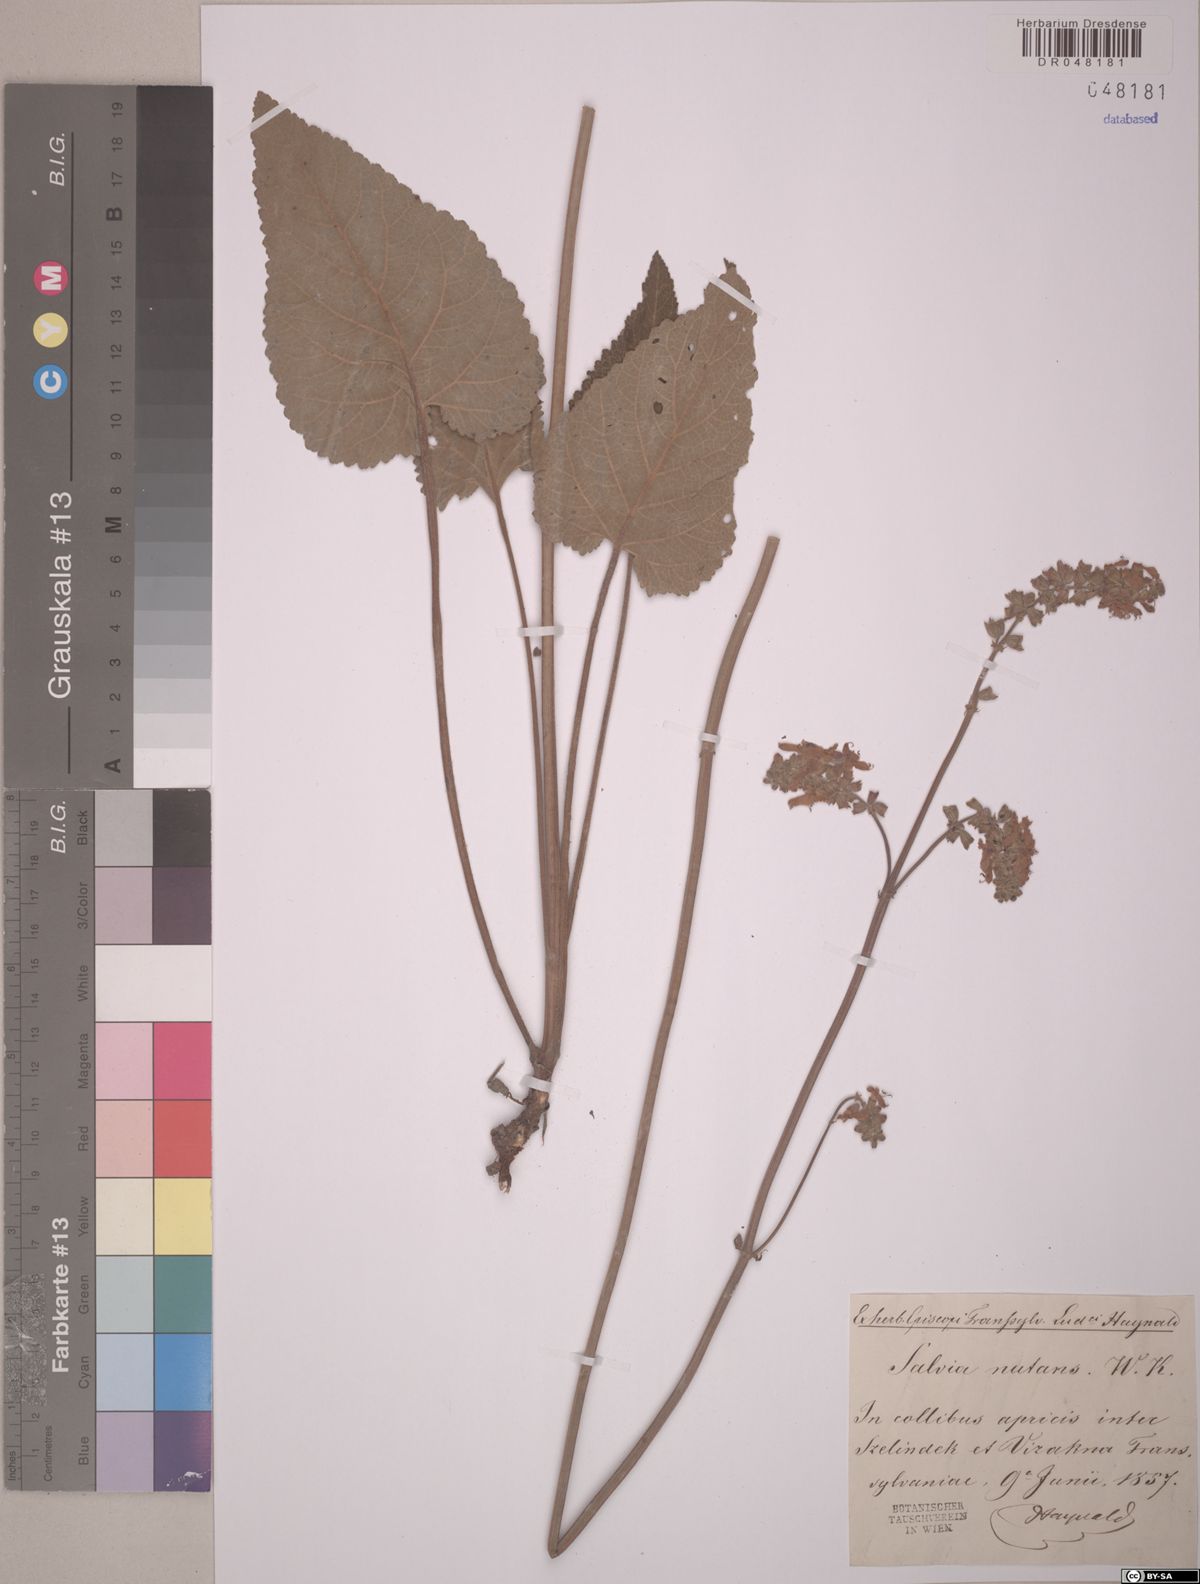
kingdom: Plantae
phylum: Tracheophyta
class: Magnoliopsida
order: Lamiales
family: Lamiaceae
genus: Salvia
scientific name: Salvia nutans
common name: Nodding sage
